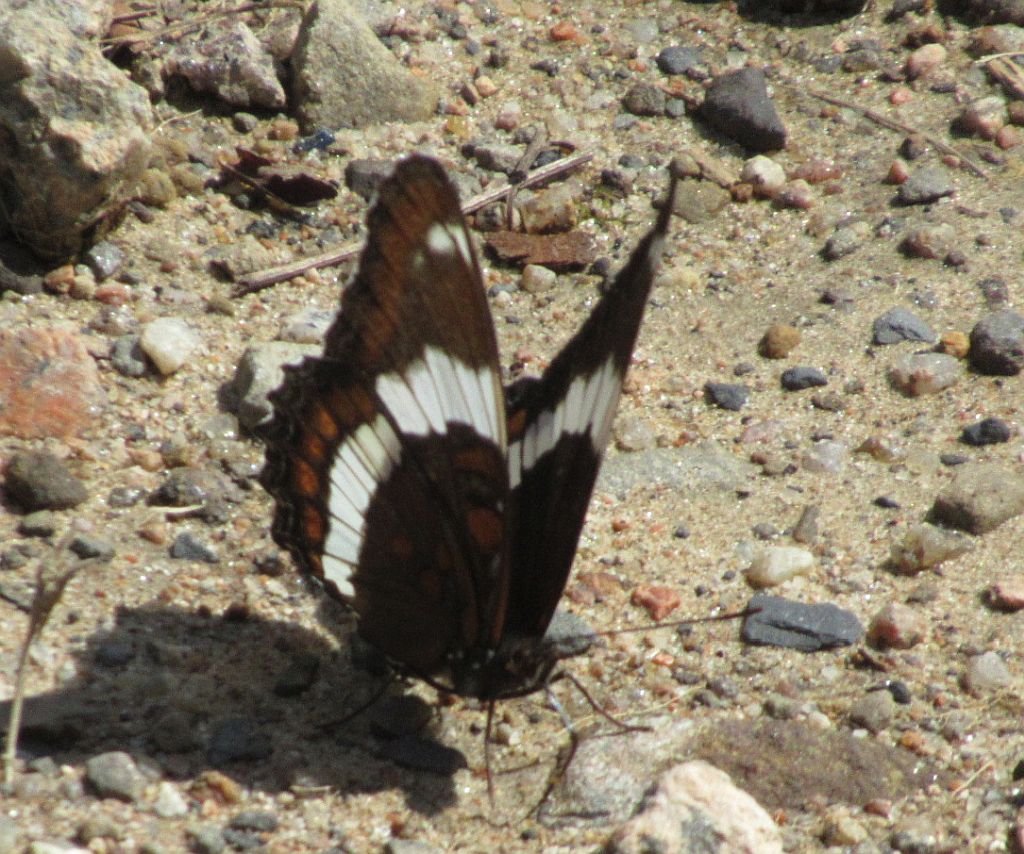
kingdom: Animalia
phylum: Arthropoda
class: Insecta
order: Lepidoptera
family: Nymphalidae
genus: Limenitis
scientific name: Limenitis arthemis
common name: Red-spotted Admiral
